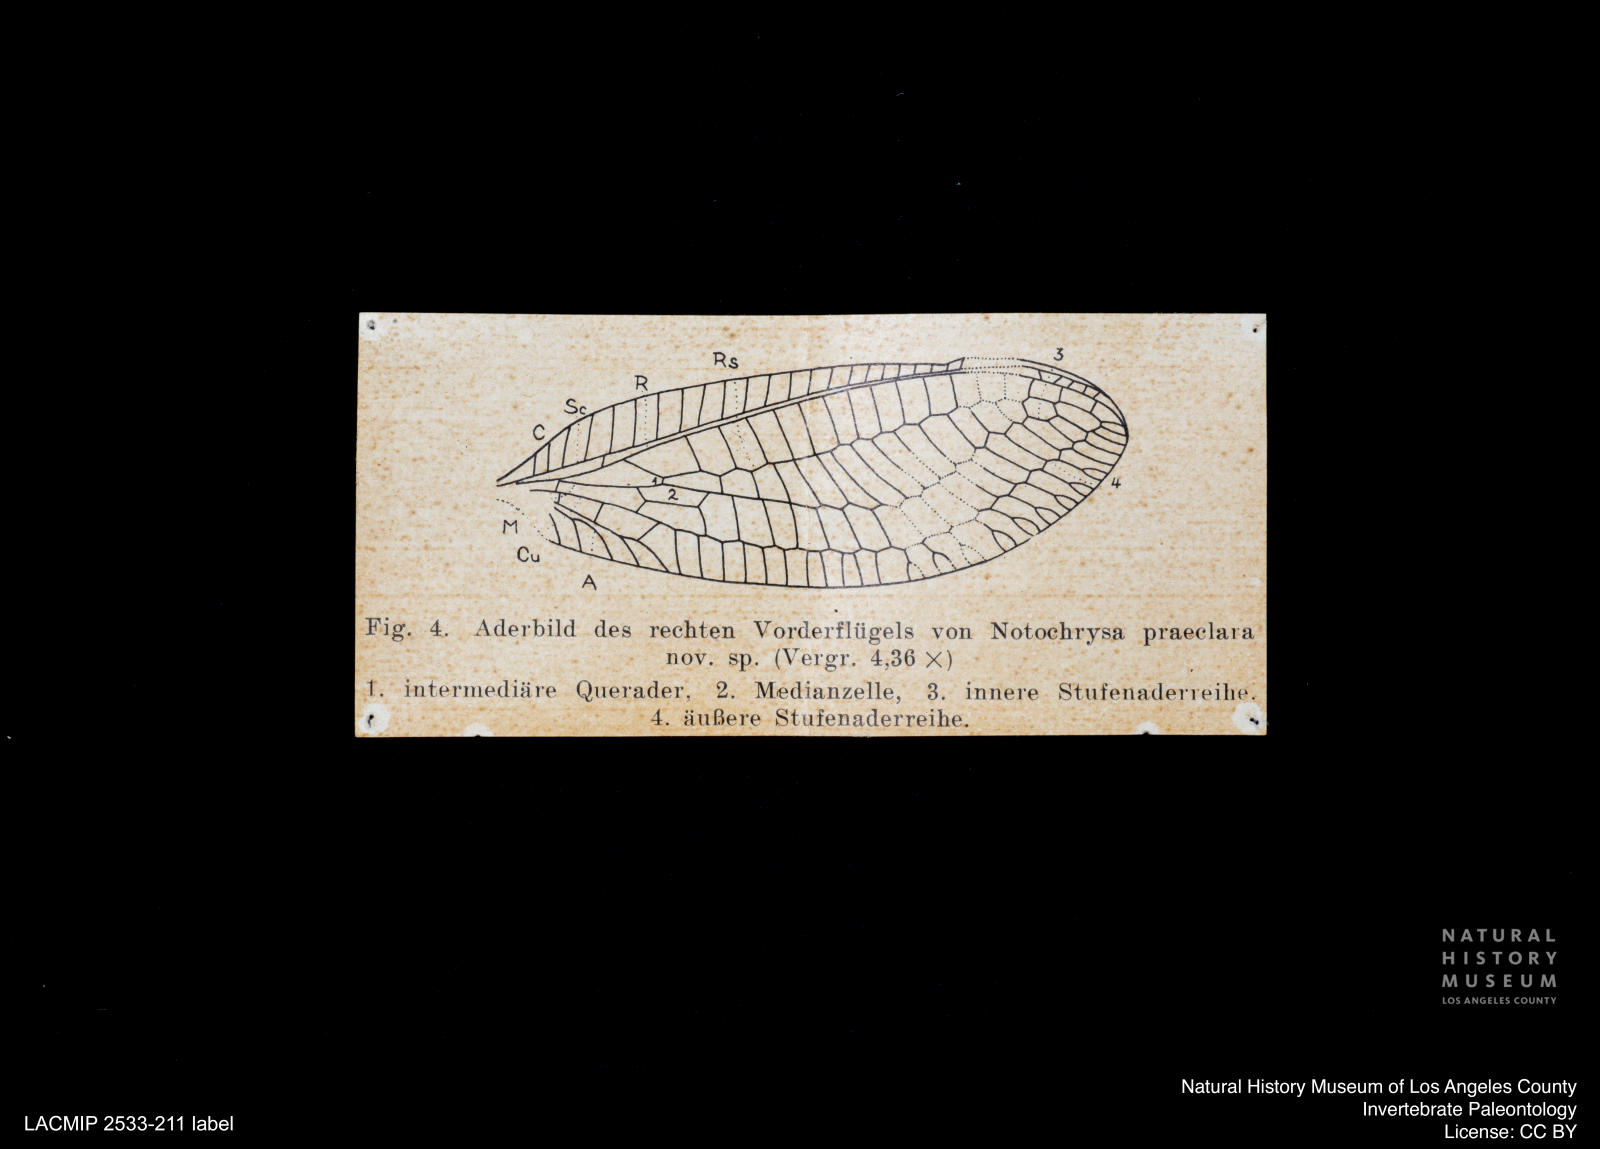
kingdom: Animalia
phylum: Arthropoda
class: Insecta
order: Neuroptera
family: Chrysopidae
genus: Nothochrysa
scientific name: Nothochrysa praeclara
